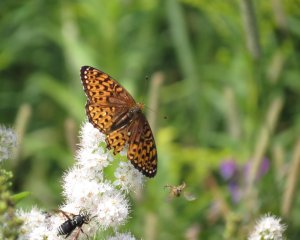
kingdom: Animalia
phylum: Arthropoda
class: Insecta
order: Lepidoptera
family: Nymphalidae
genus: Speyeria
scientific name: Speyeria atlantis
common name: Atlantis Fritillary
